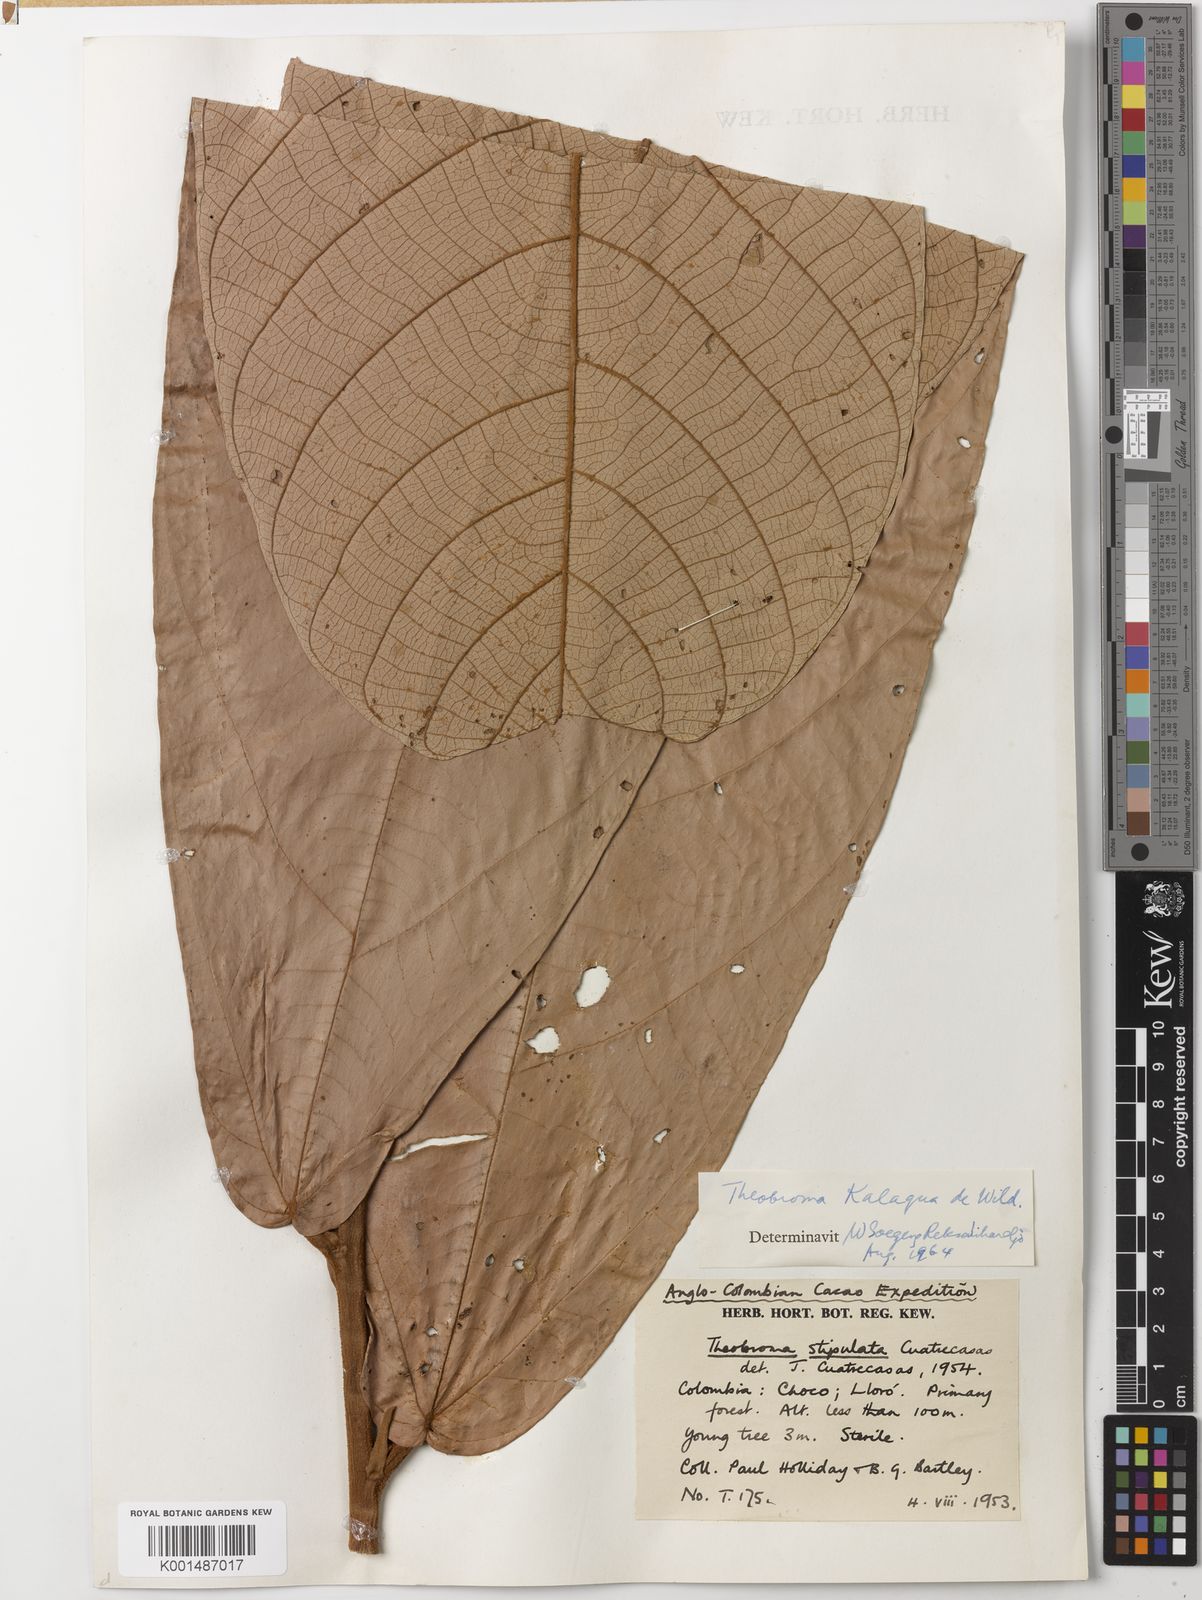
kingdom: Plantae
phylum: Tracheophyta
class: Magnoliopsida
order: Malvales
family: Malvaceae
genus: Theobroma
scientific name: Theobroma simiarum
